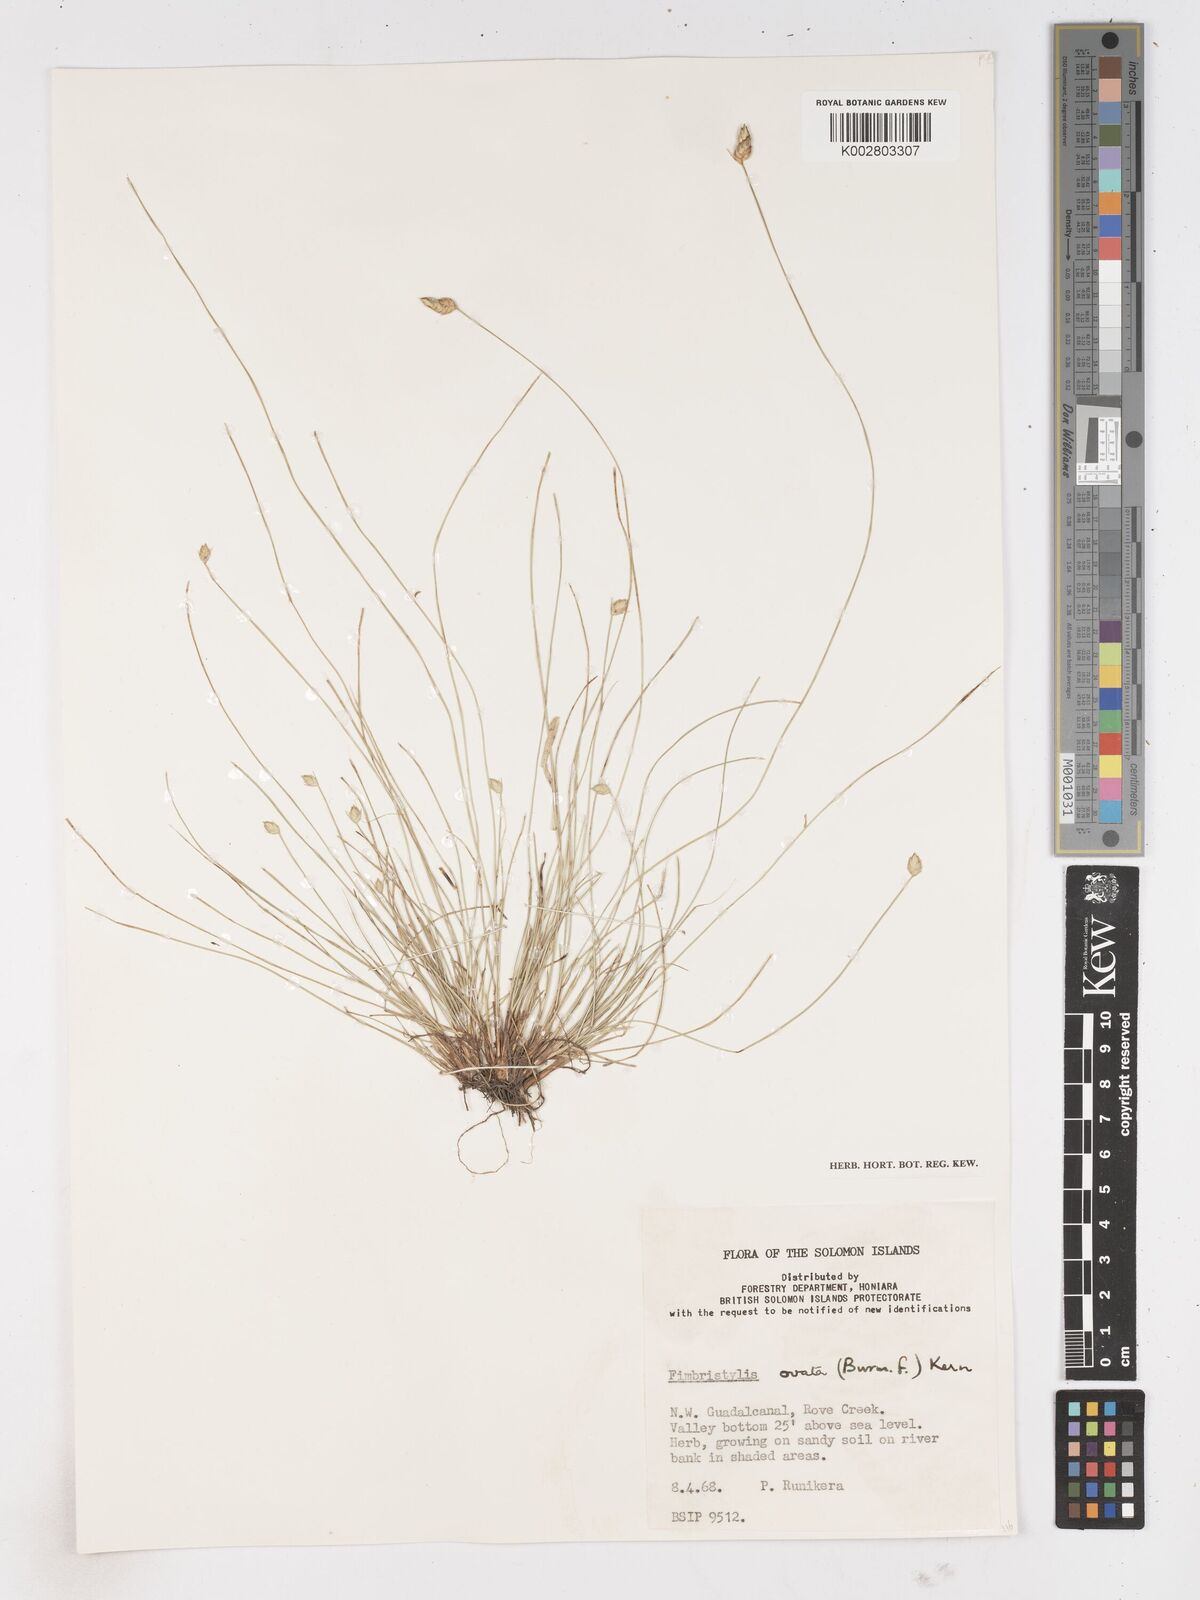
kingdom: Plantae
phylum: Tracheophyta
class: Liliopsida
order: Poales
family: Cyperaceae
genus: Abildgaardia
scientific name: Abildgaardia ovata
